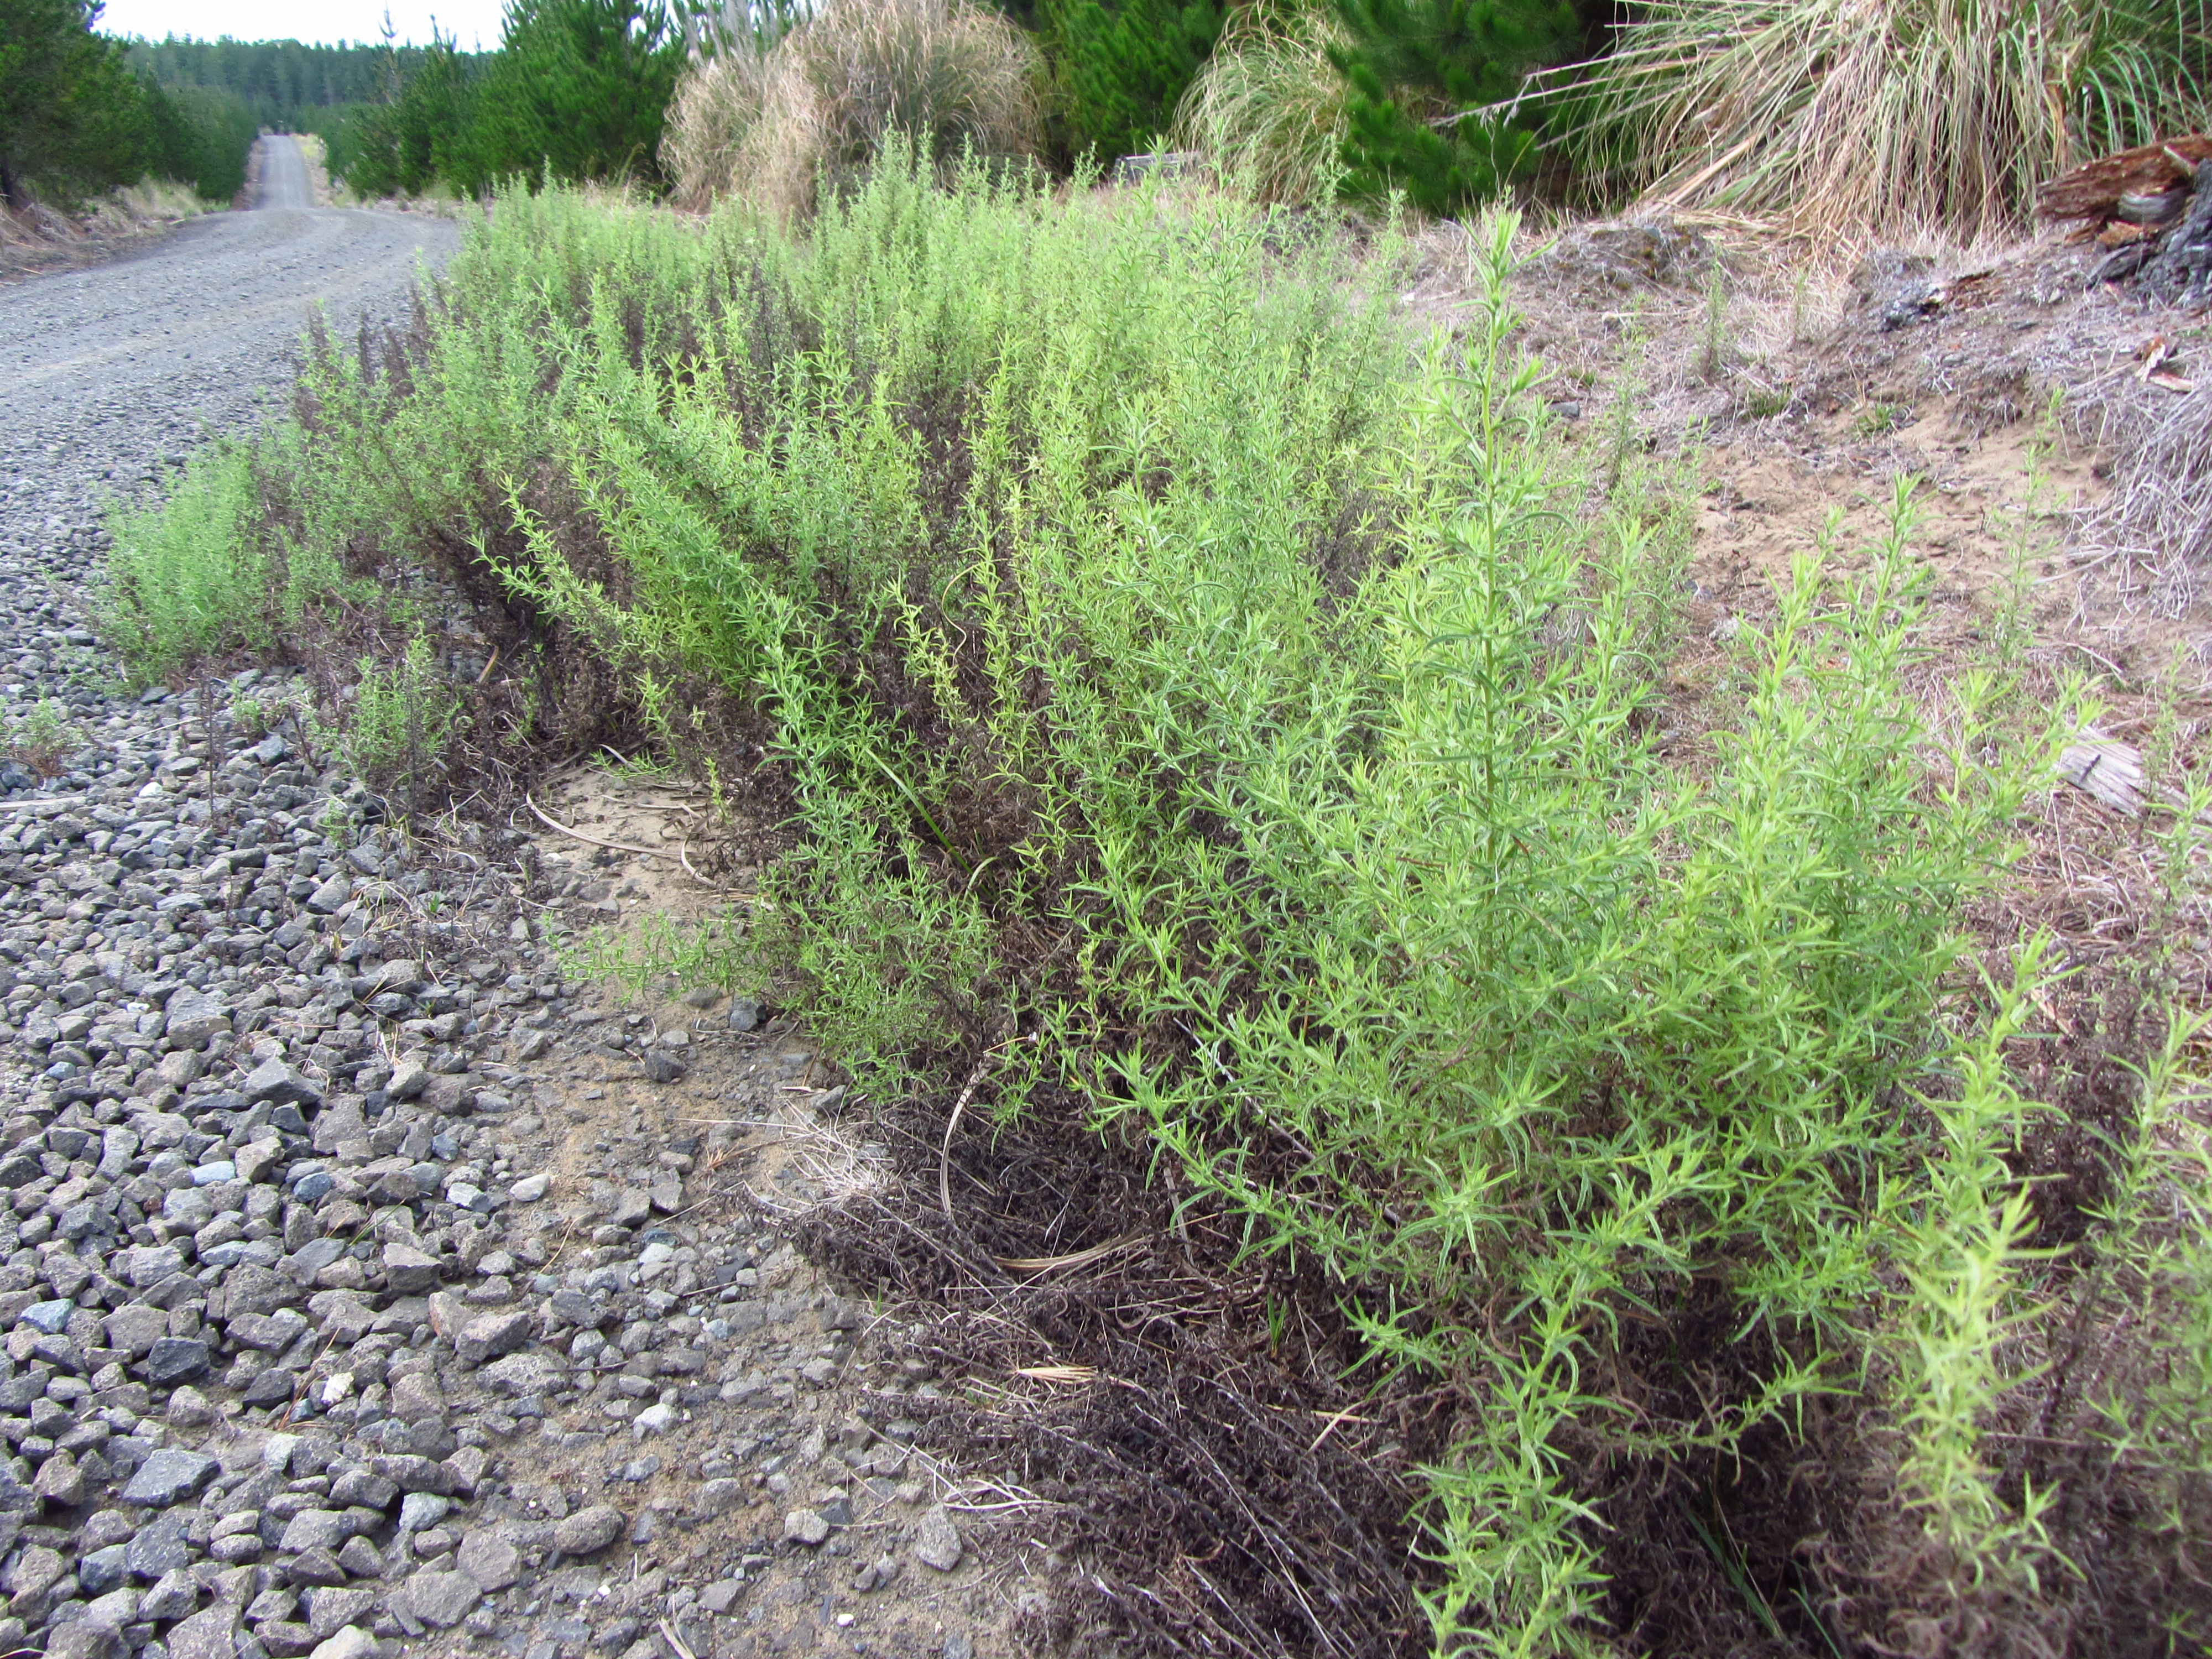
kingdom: Plantae
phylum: Tracheophyta
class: Magnoliopsida
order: Asterales
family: Asteraceae
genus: Dittrichia
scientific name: Dittrichia graveolens
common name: Stinking fleabane
